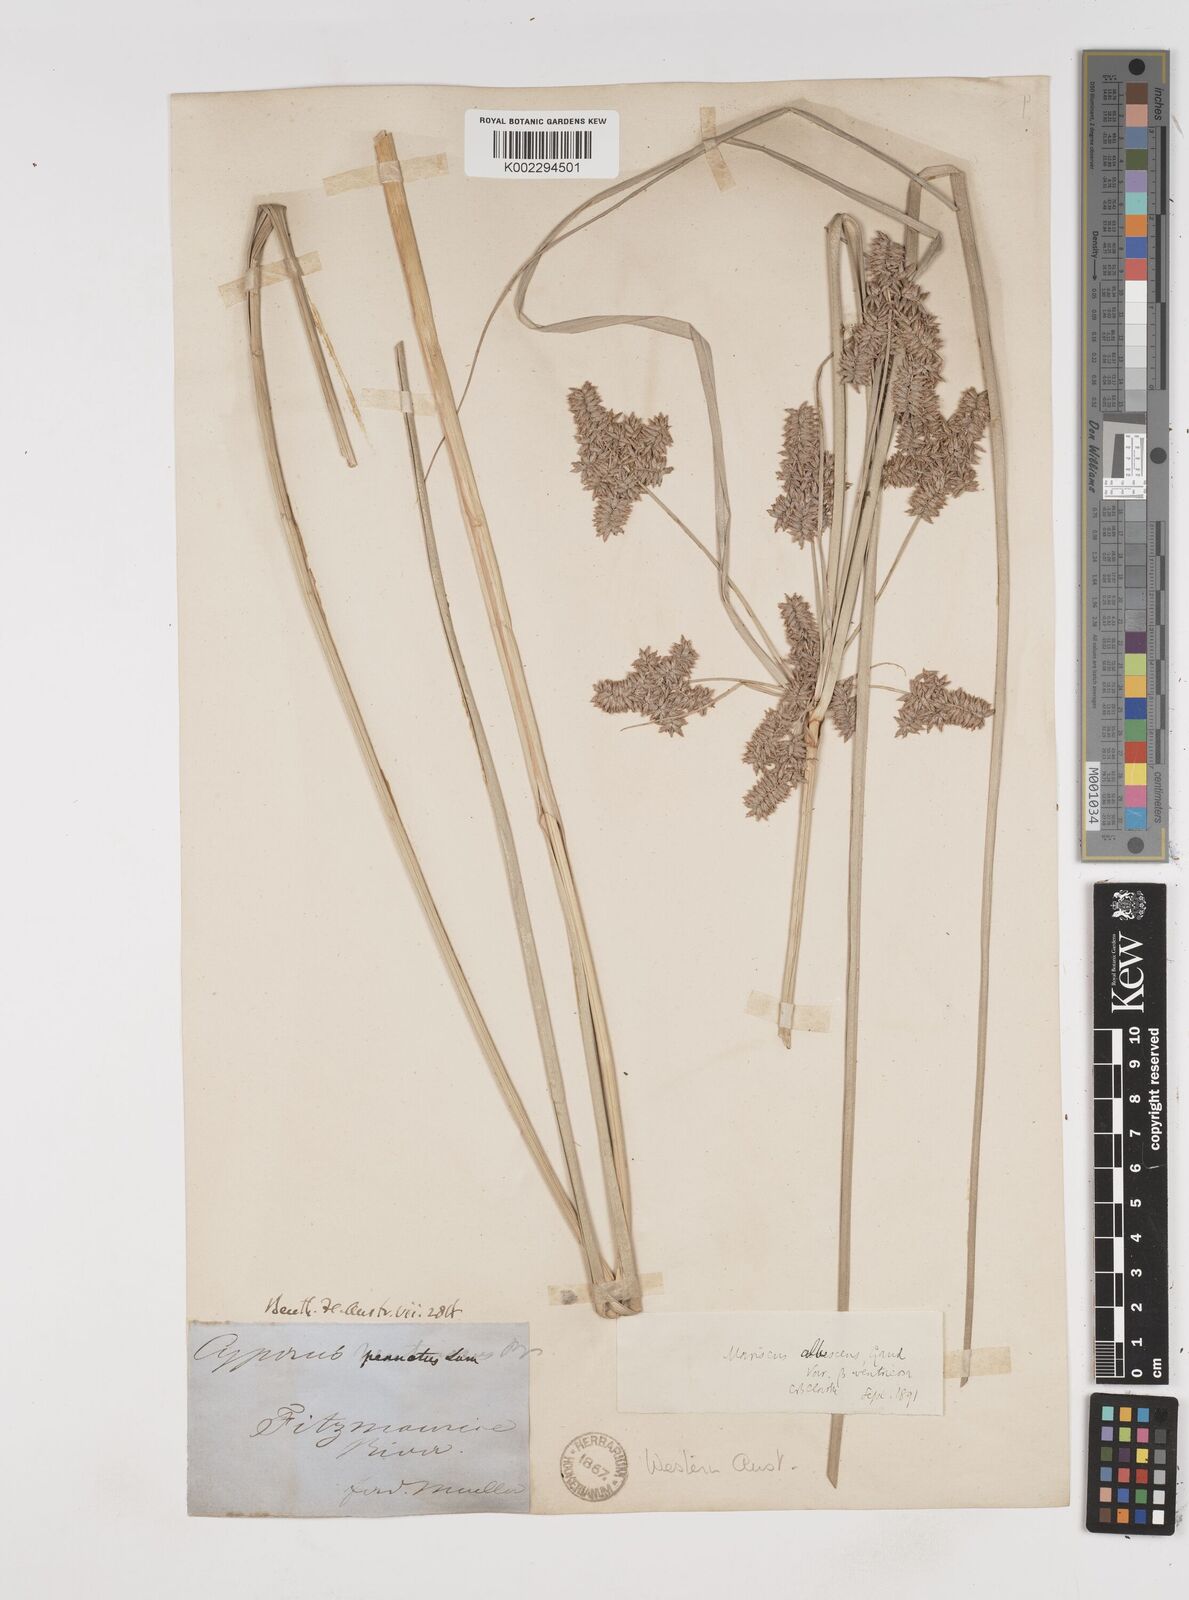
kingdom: Plantae
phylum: Tracheophyta
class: Liliopsida
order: Poales
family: Cyperaceae
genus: Cyperus
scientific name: Cyperus javanicus
